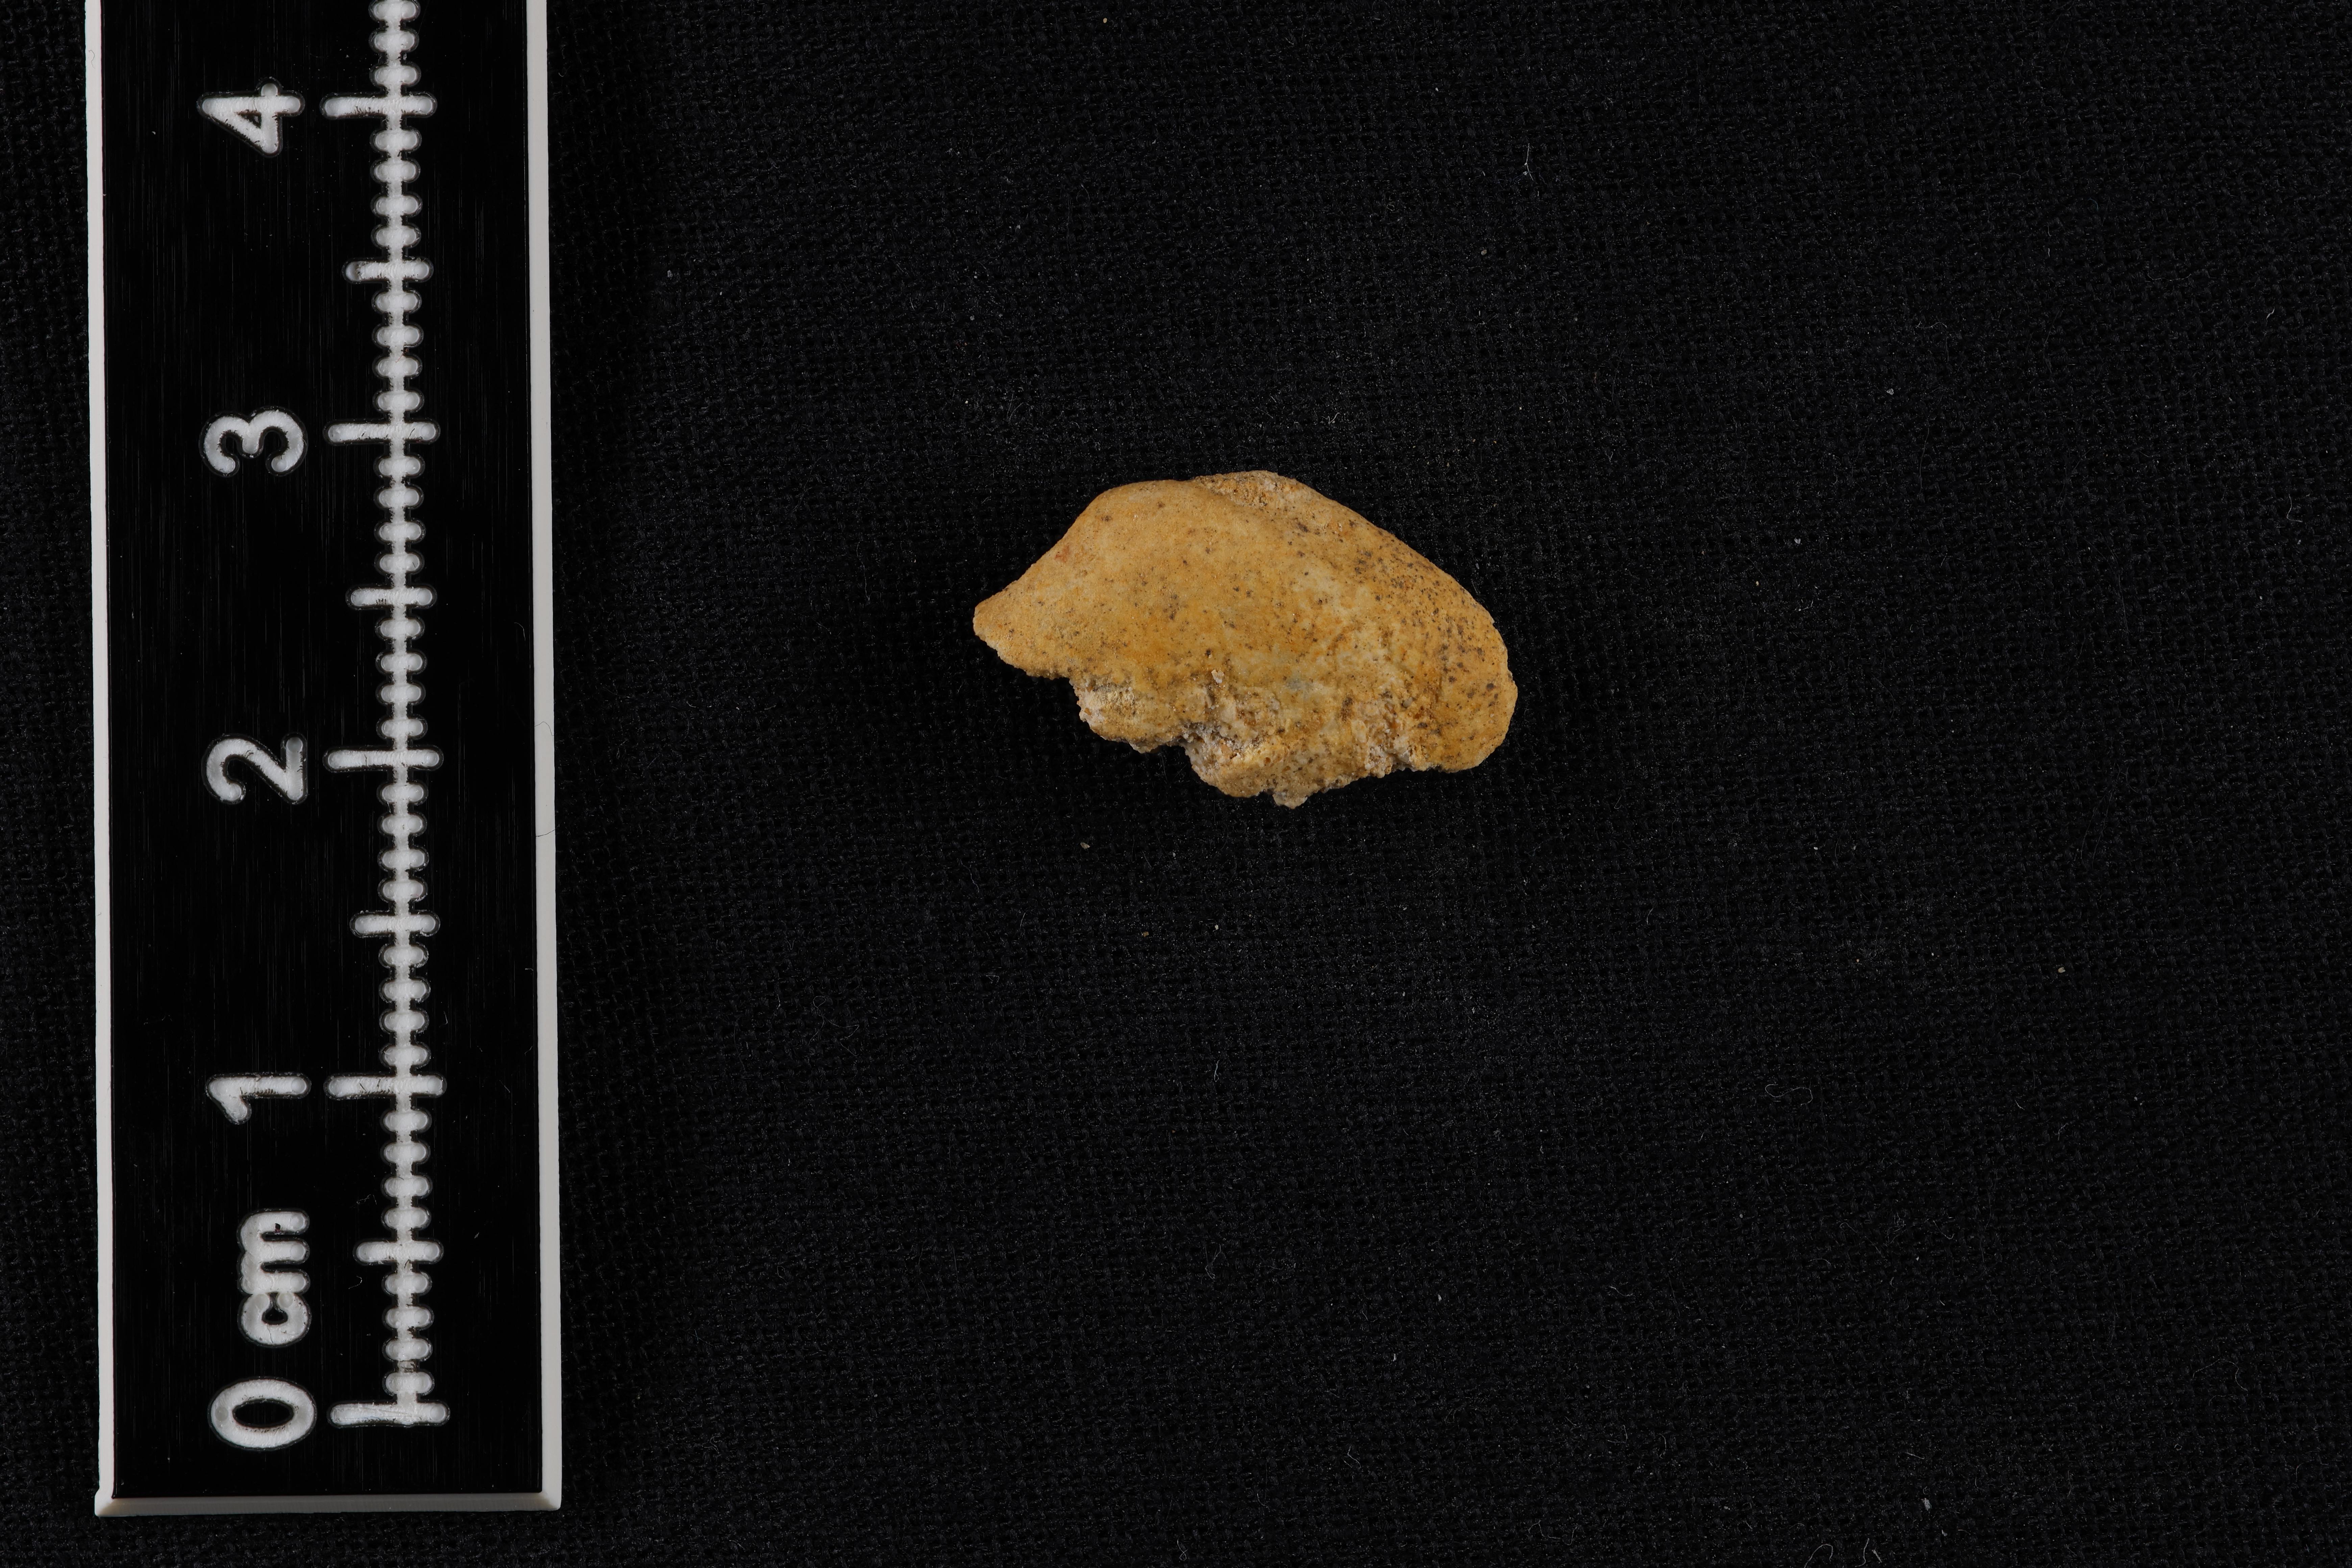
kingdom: Animalia
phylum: Mollusca
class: Bivalvia
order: Cardiida
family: Tancrediidae
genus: Tancredia
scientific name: Tancredia
